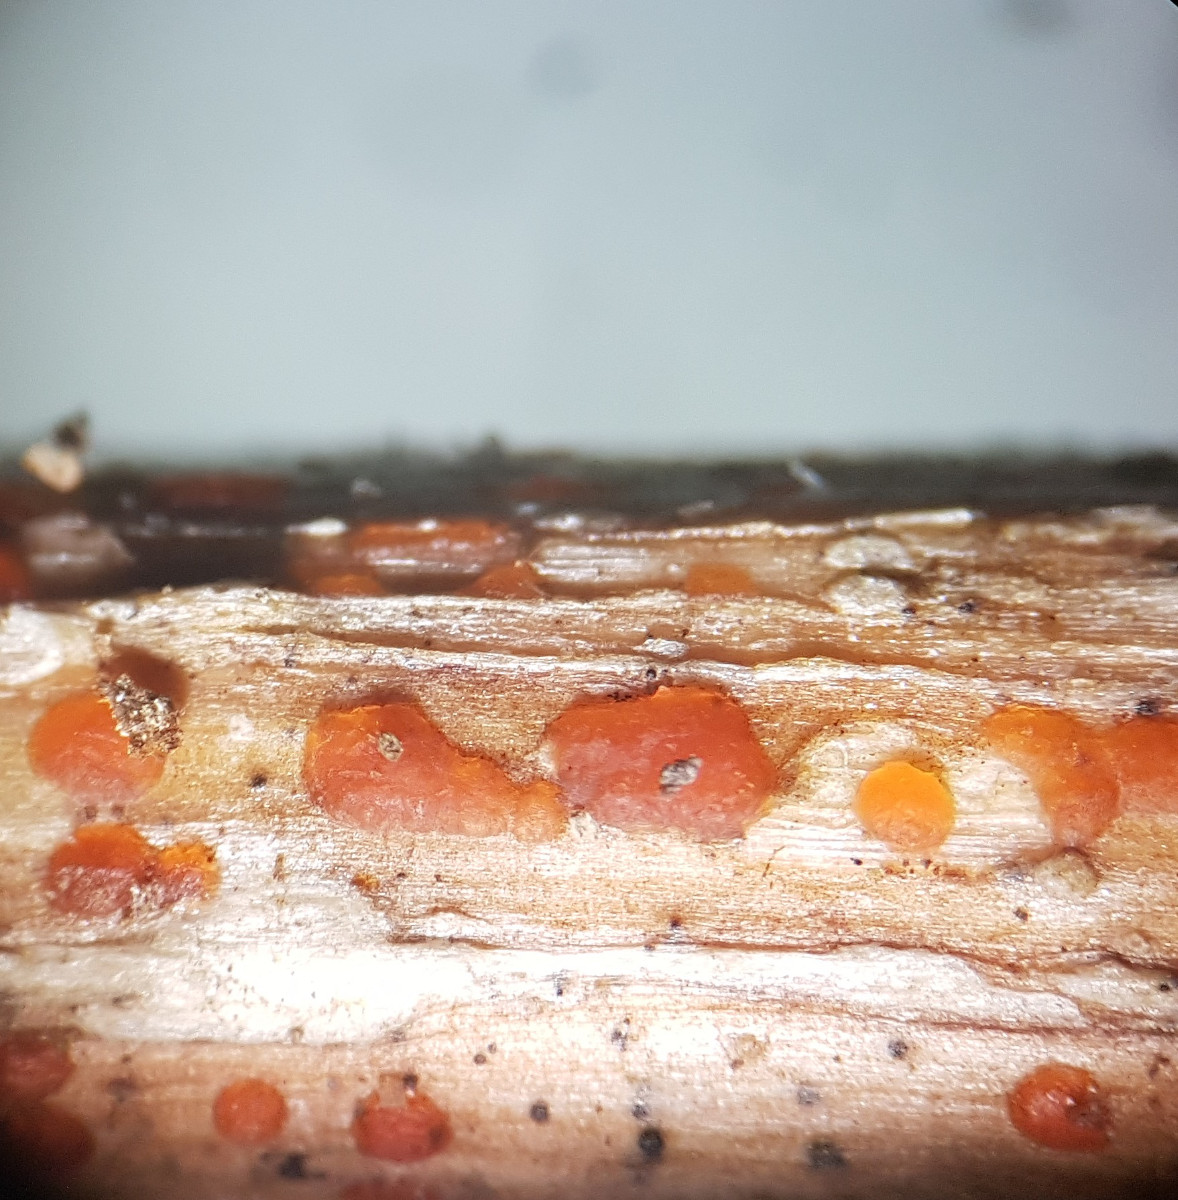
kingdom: Fungi
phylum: Ascomycota
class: Leotiomycetes
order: Helotiales
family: Calloriaceae
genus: Calloria
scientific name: Calloria urticae
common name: nælde-orangeskive
